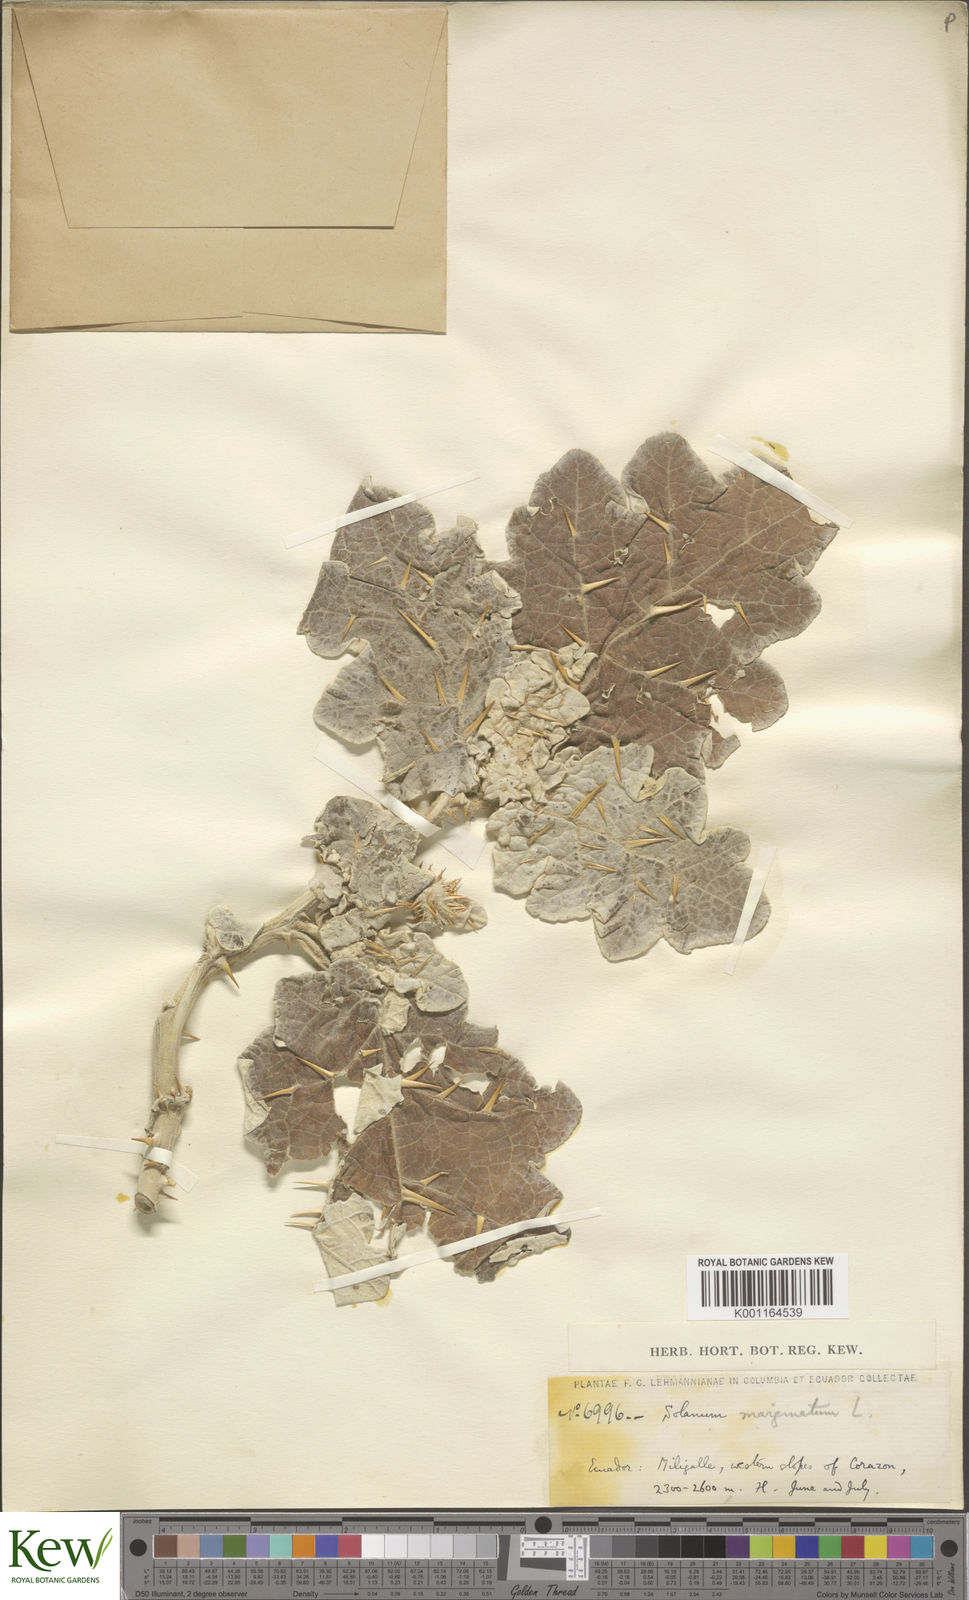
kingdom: Plantae
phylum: Tracheophyta
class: Magnoliopsida
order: Solanales
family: Solanaceae
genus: Solanum
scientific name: Solanum marginatum
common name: Purple african nightshade
